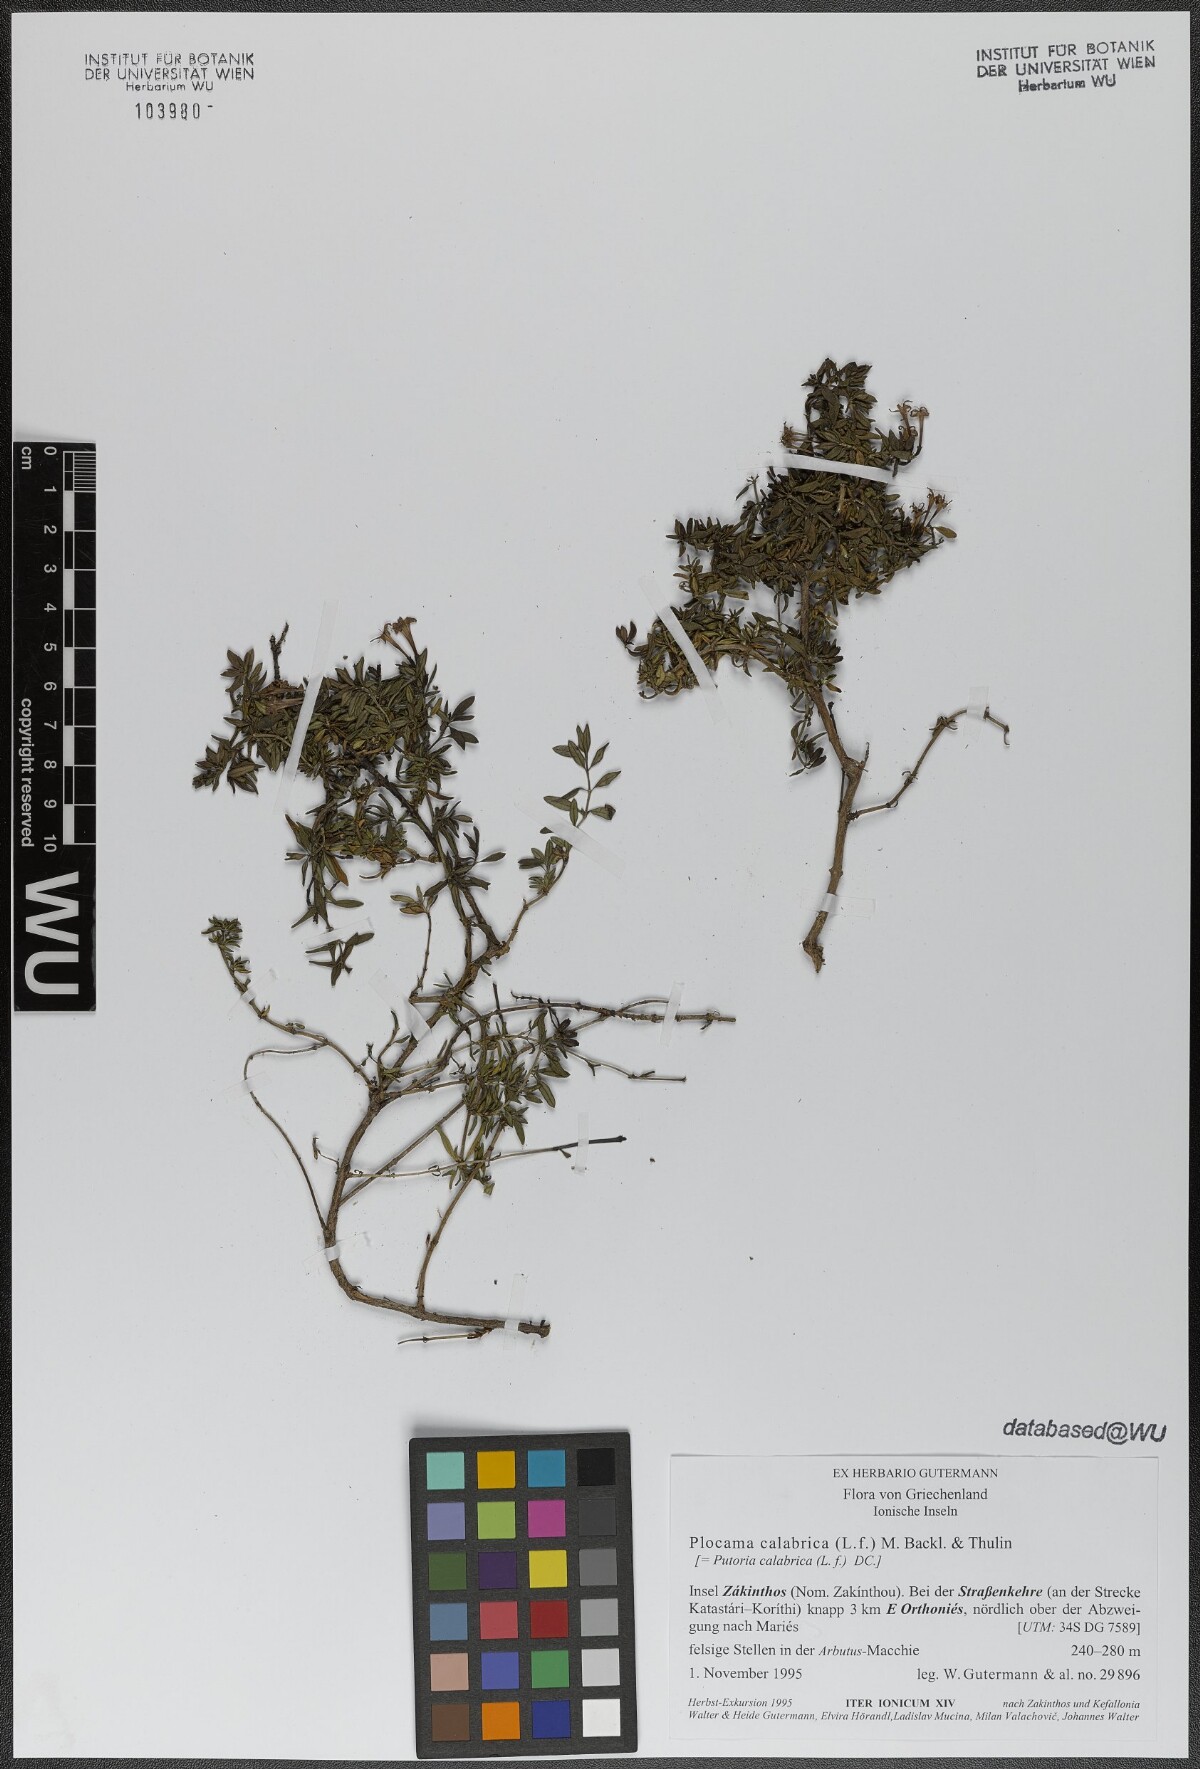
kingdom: Plantae
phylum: Tracheophyta
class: Magnoliopsida
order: Gentianales
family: Rubiaceae
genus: Plocama
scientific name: Plocama calabrica
